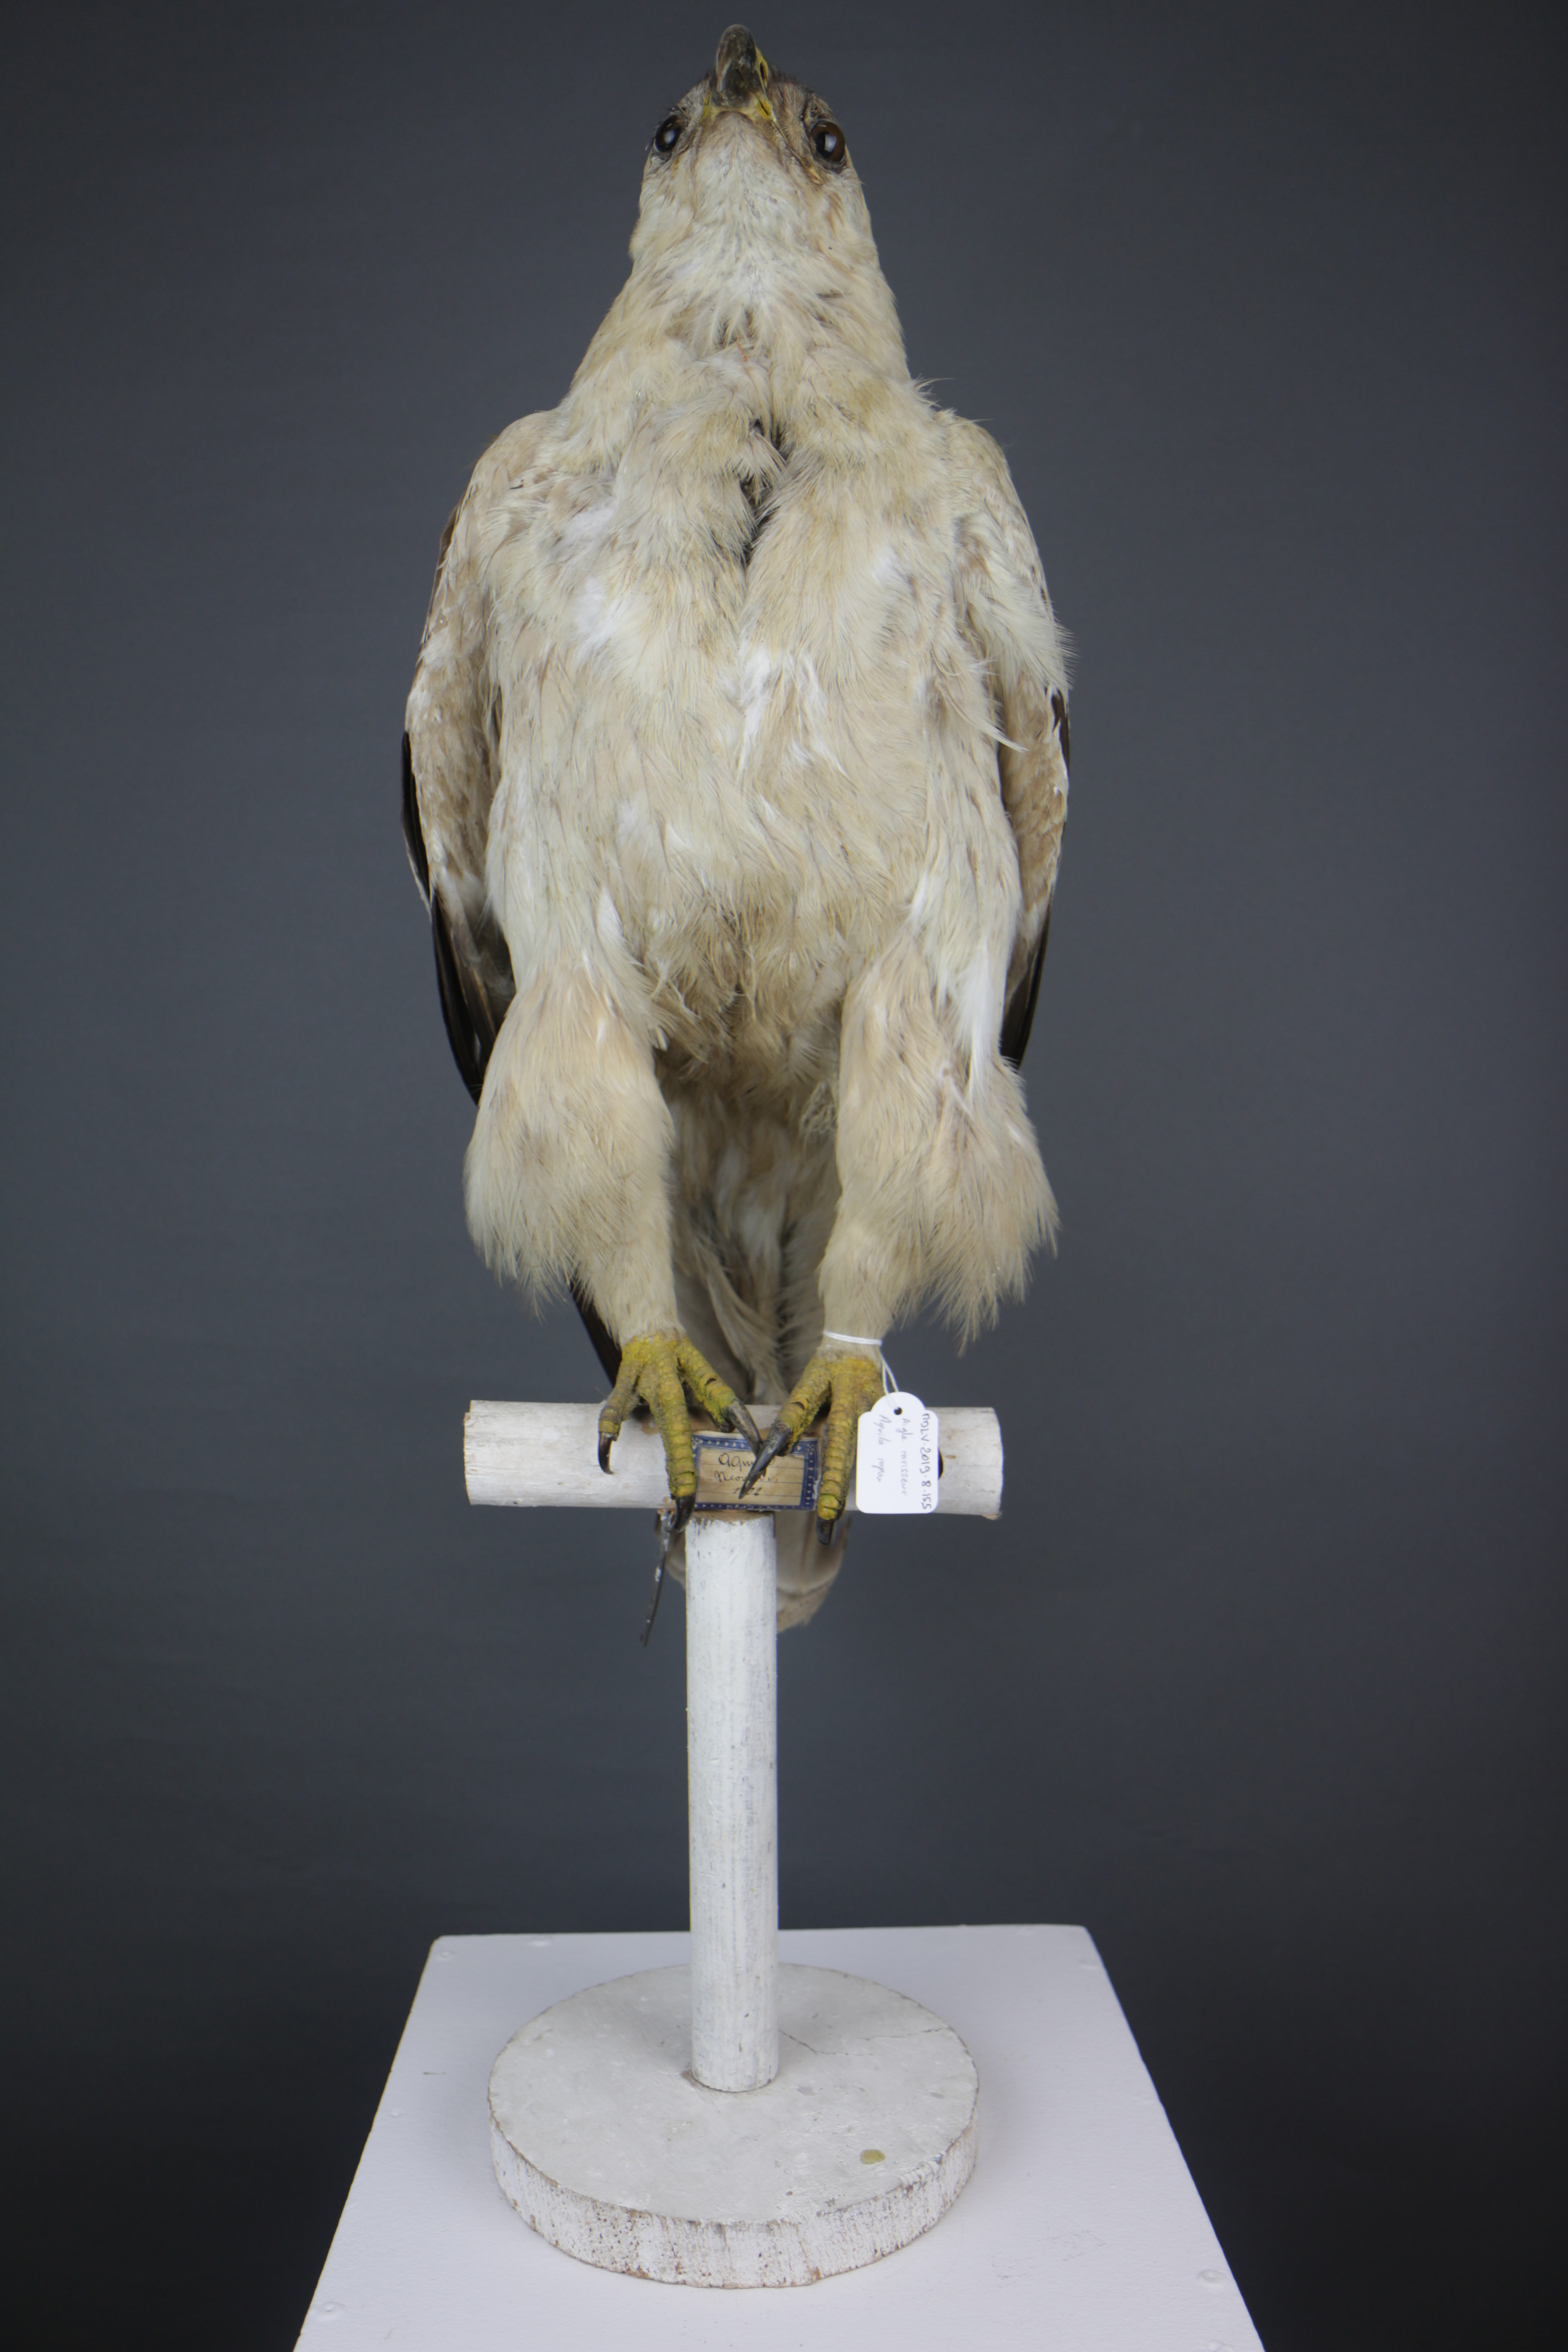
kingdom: Animalia
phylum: Chordata
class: Aves
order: Accipitriformes
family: Accipitridae
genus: Aquila
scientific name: Aquila rapax
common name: Tawny eagle
